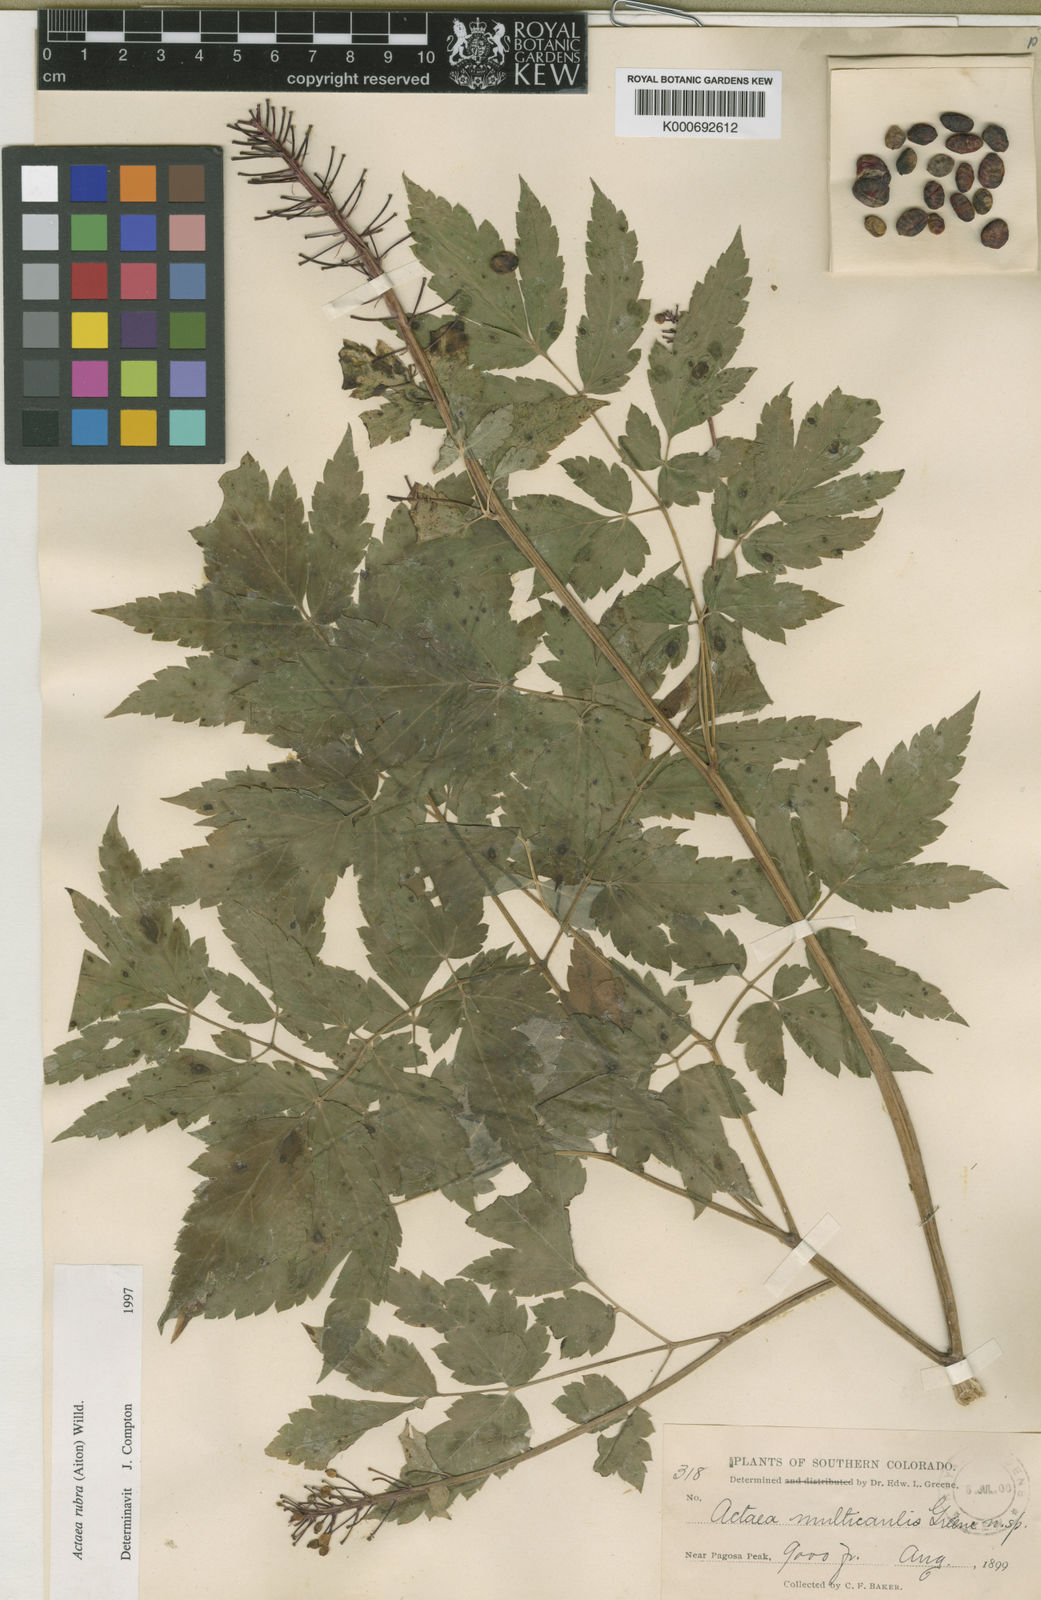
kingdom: Plantae
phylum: Tracheophyta
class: Magnoliopsida
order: Ranunculales
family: Ranunculaceae
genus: Actaea
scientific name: Actaea
